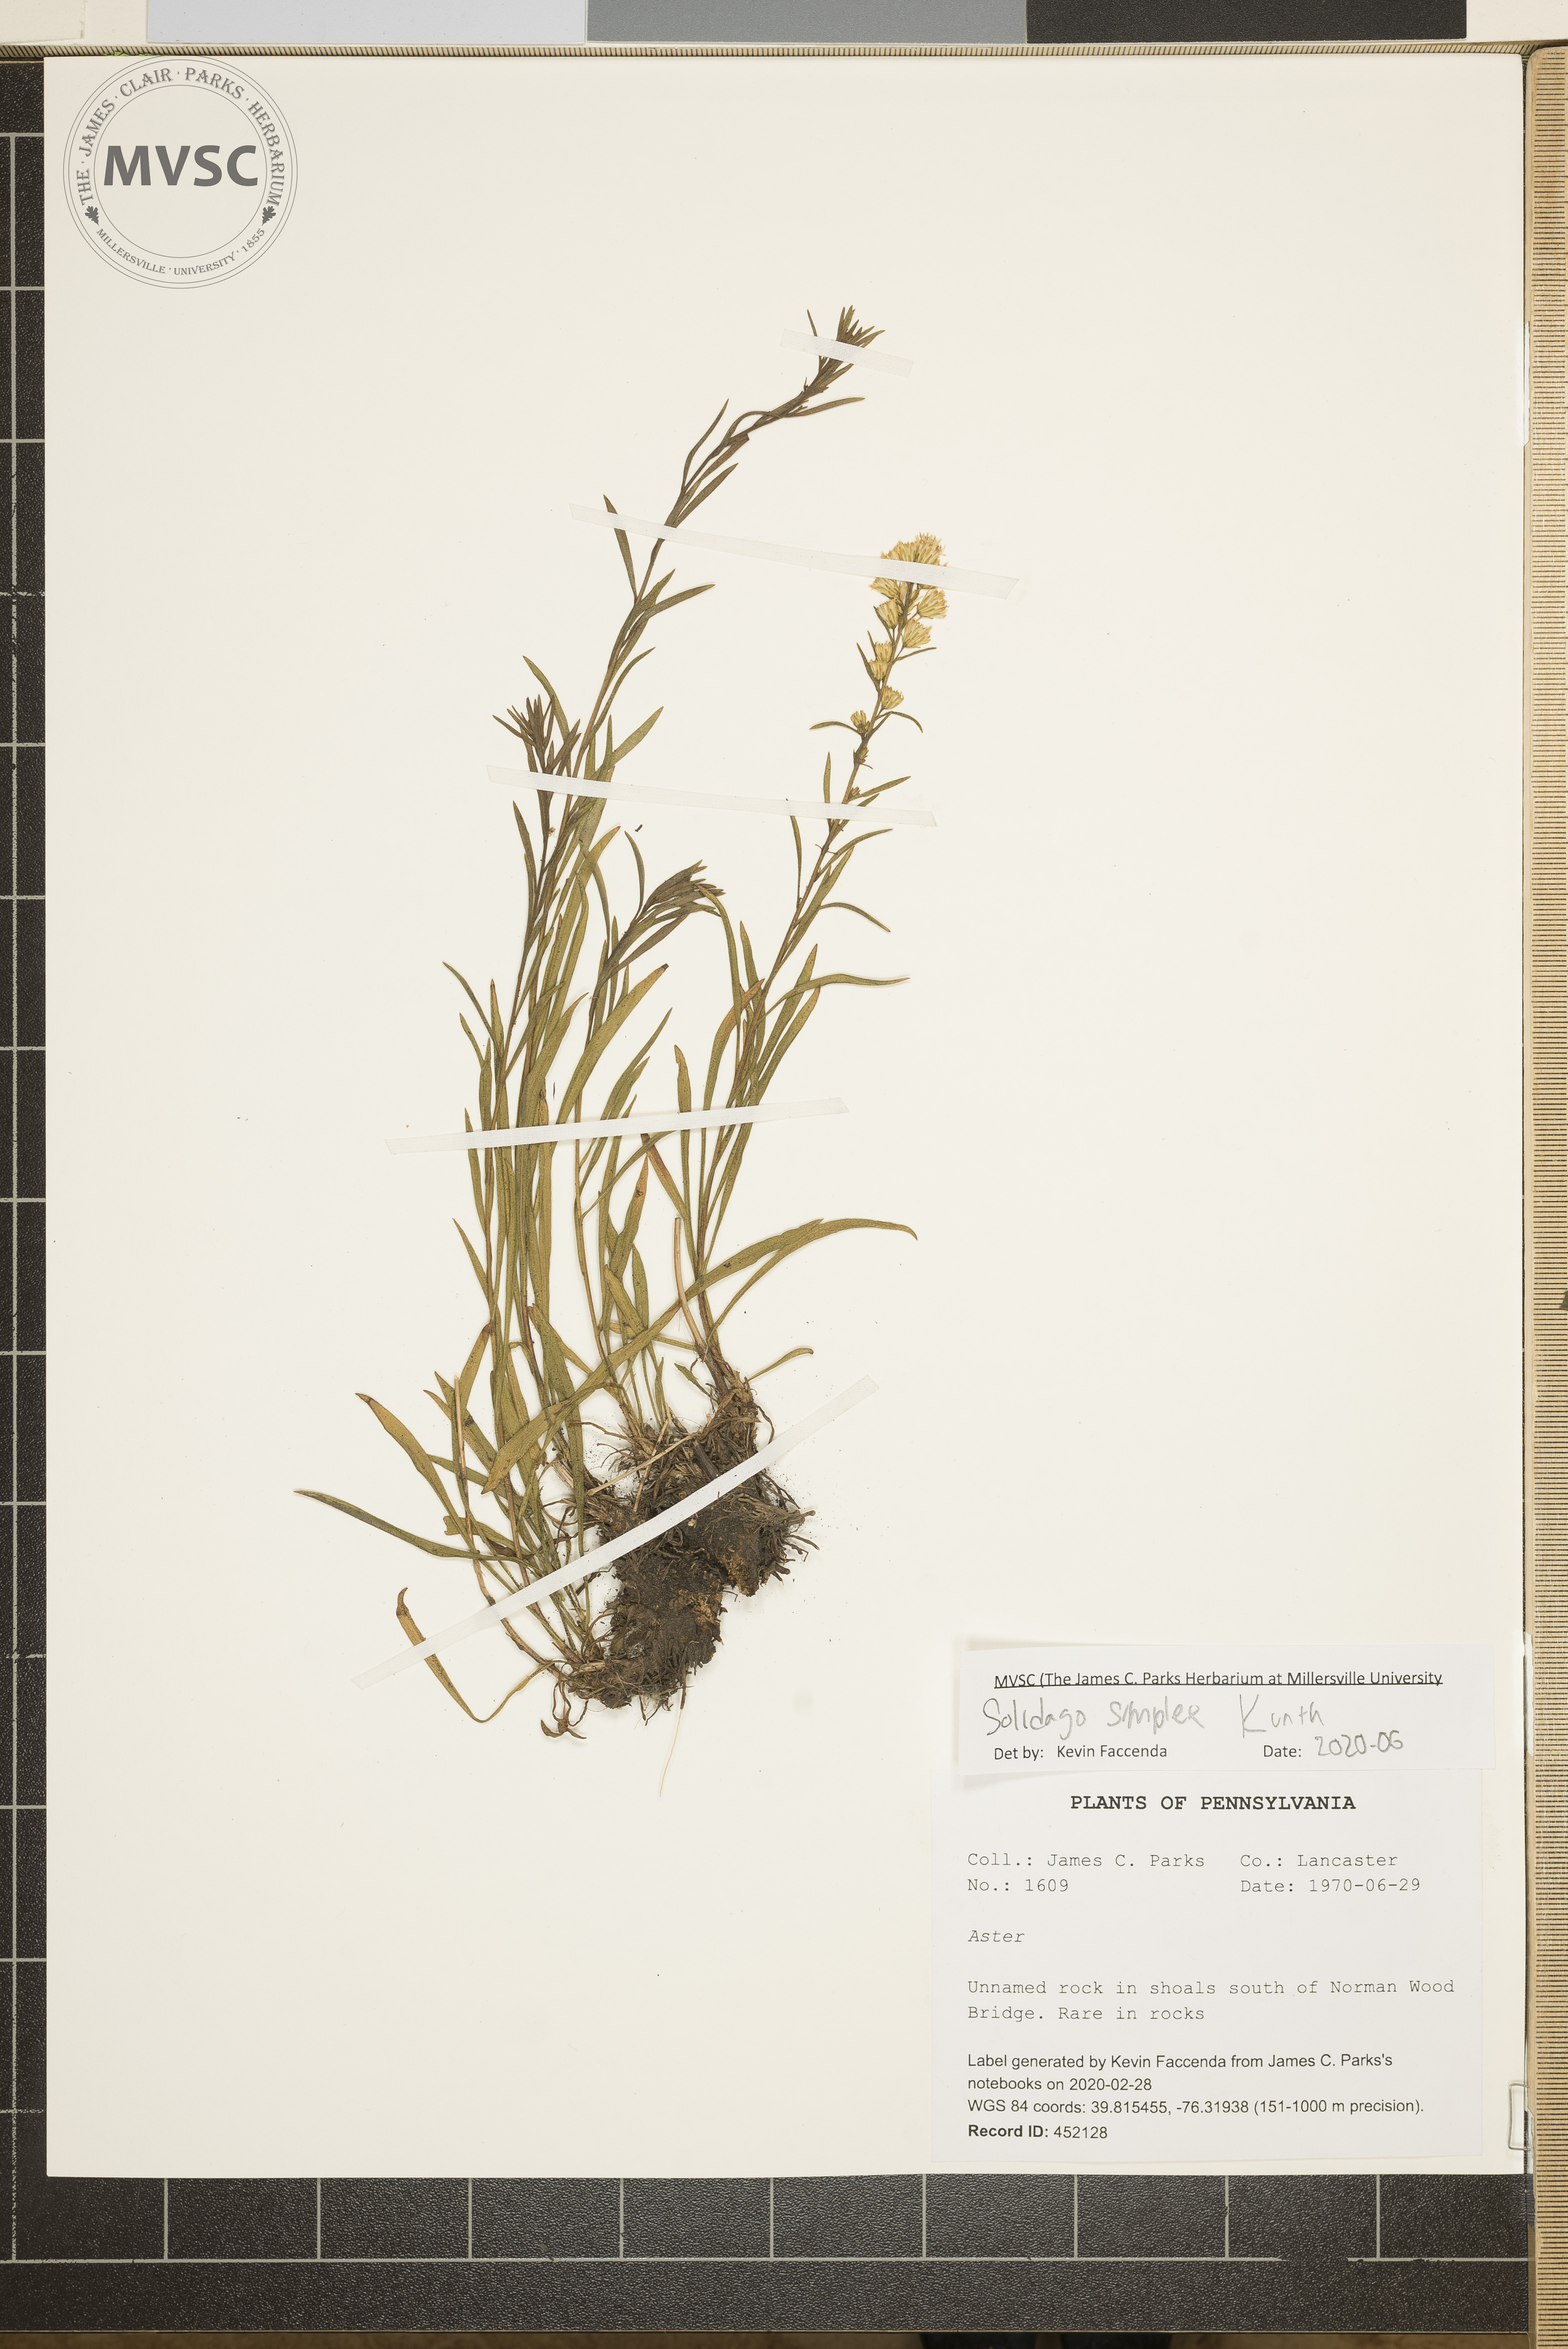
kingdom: Plantae
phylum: Tracheophyta
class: Magnoliopsida
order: Asterales
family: Asteraceae
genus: Solidago
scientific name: Solidago simplex
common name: Sticky goldenrod
